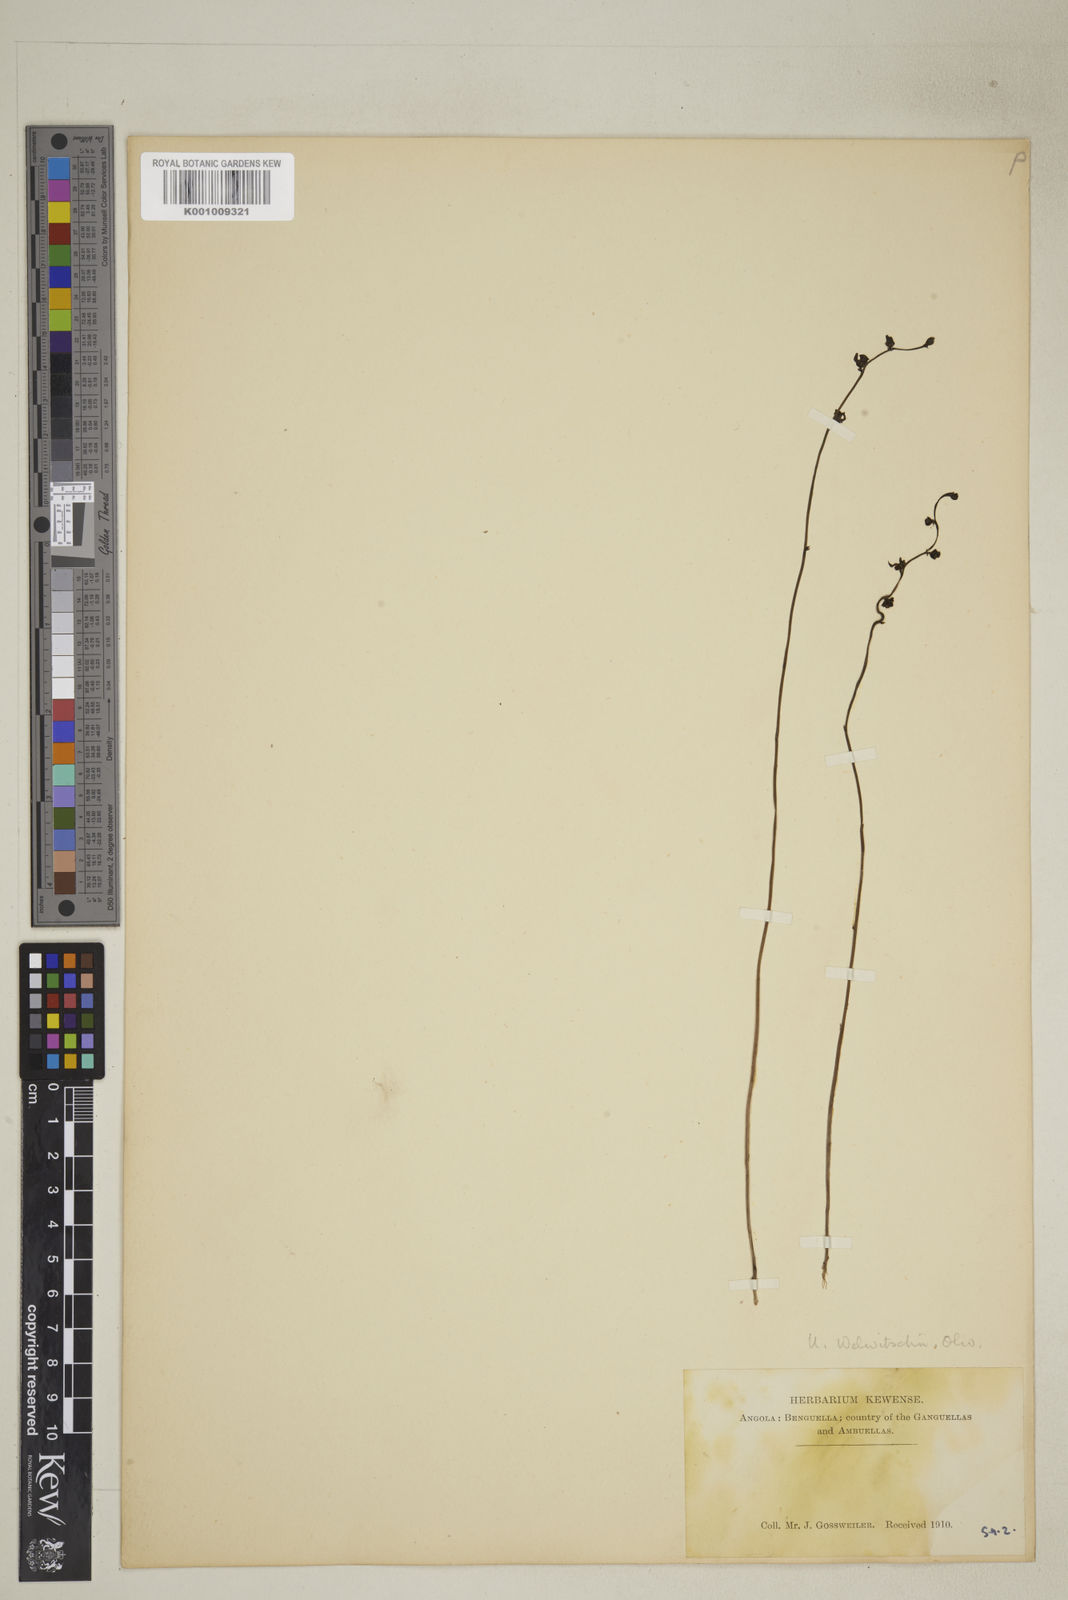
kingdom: Plantae
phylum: Tracheophyta
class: Magnoliopsida
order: Lamiales
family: Lentibulariaceae
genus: Utricularia
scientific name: Utricularia welwitschii
